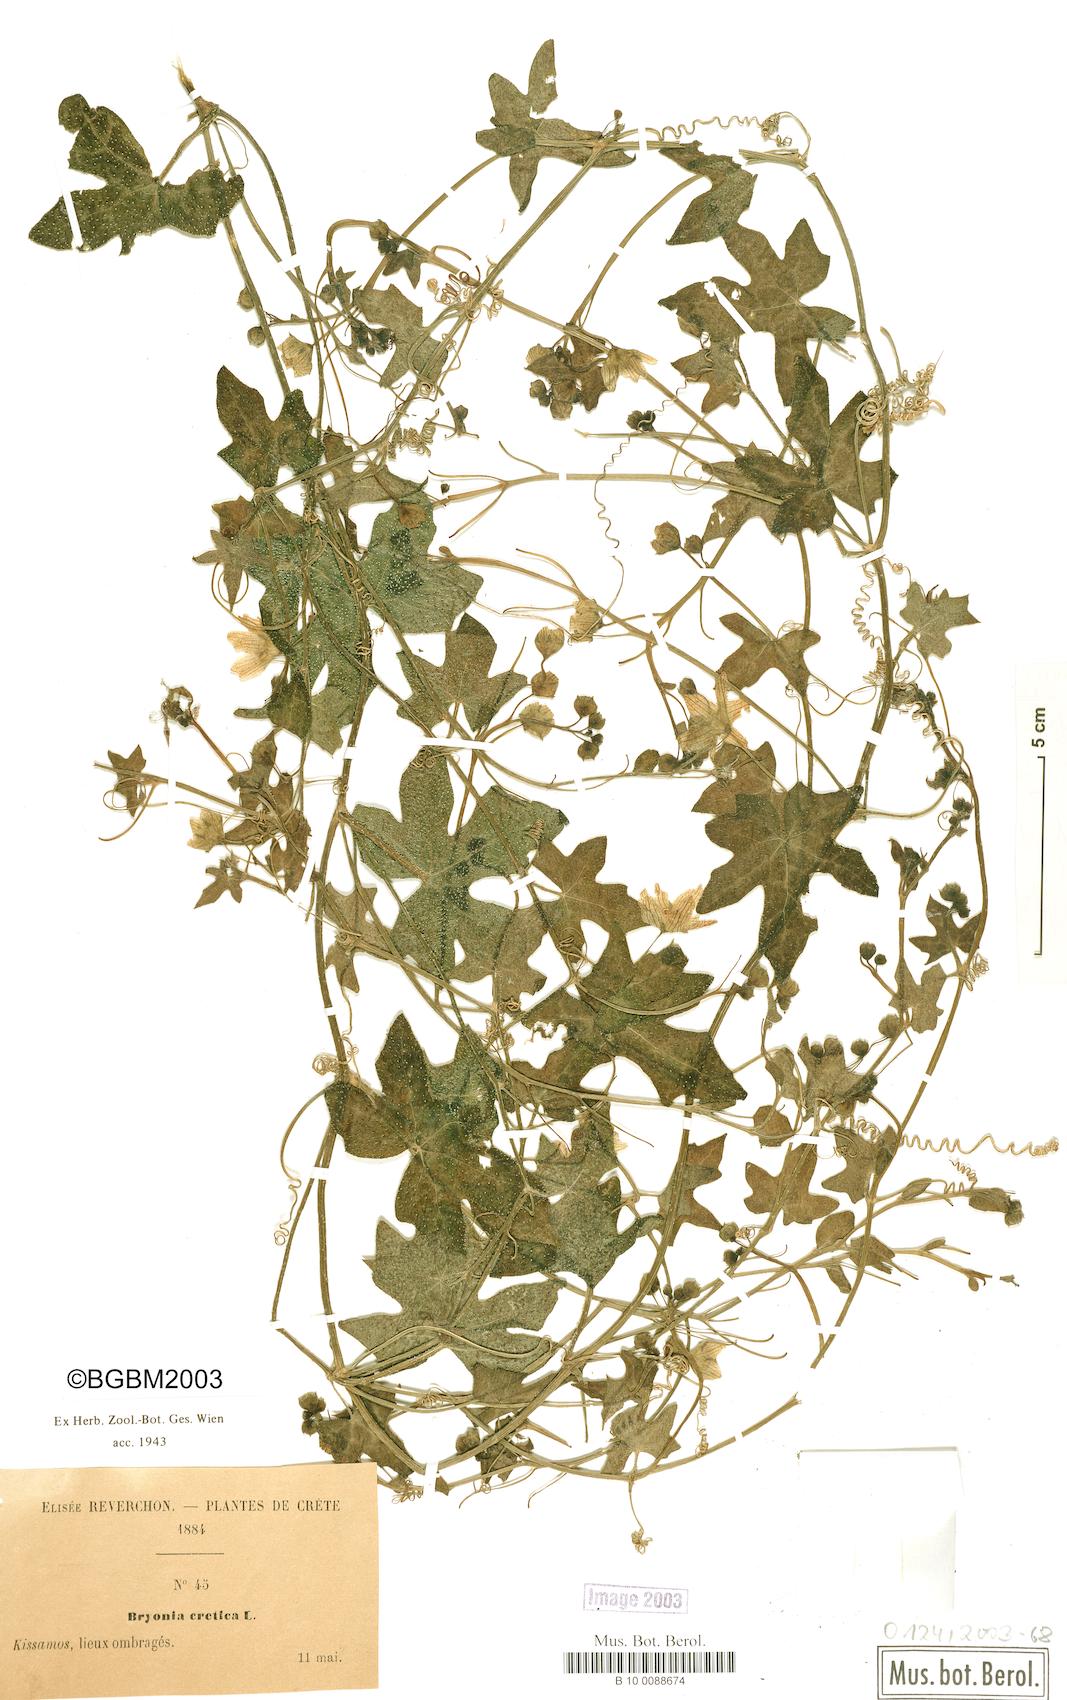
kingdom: Plantae
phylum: Tracheophyta
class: Magnoliopsida
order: Cucurbitales
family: Cucurbitaceae
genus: Bryonia
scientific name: Bryonia cretica
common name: Cretan bryony
